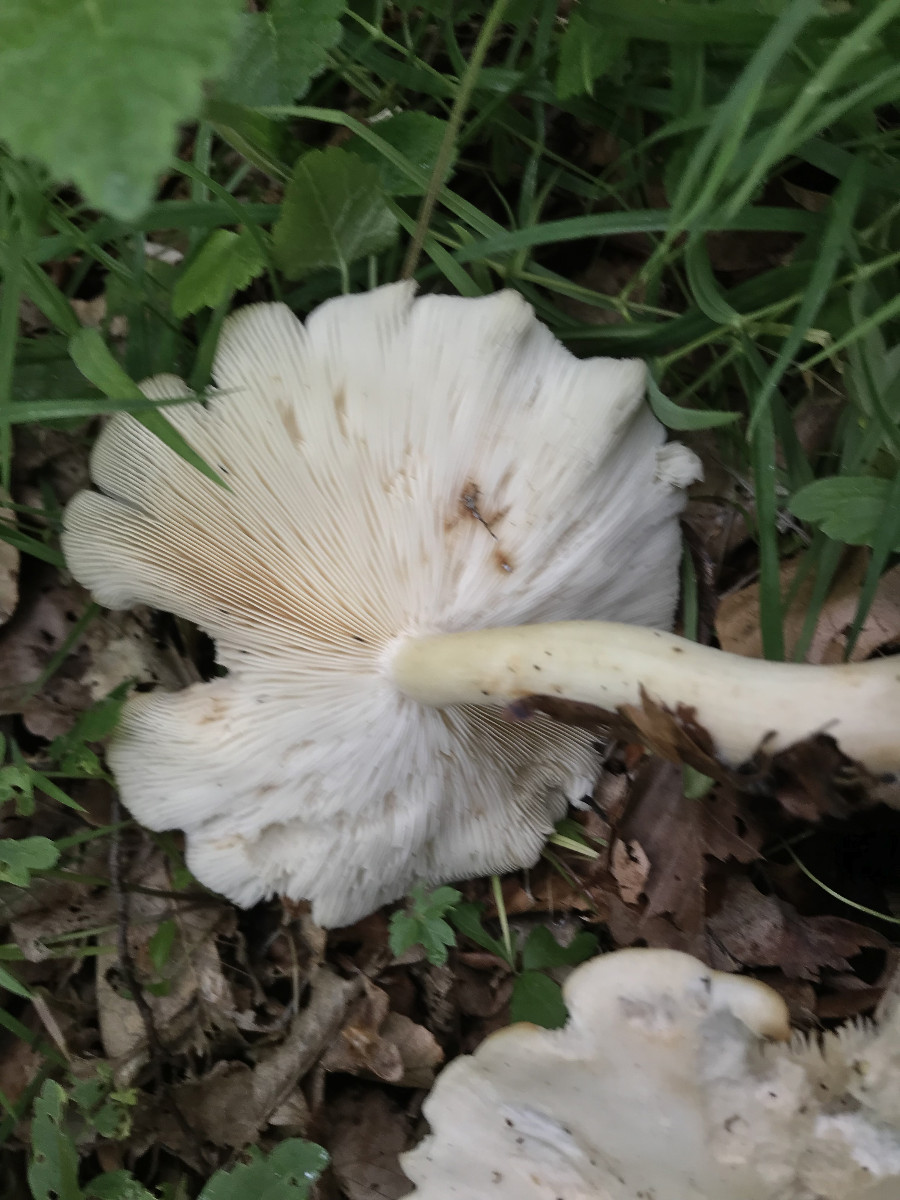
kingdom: Fungi
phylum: Basidiomycota
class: Agaricomycetes
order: Agaricales
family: Entolomataceae
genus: Entoloma
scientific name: Entoloma
